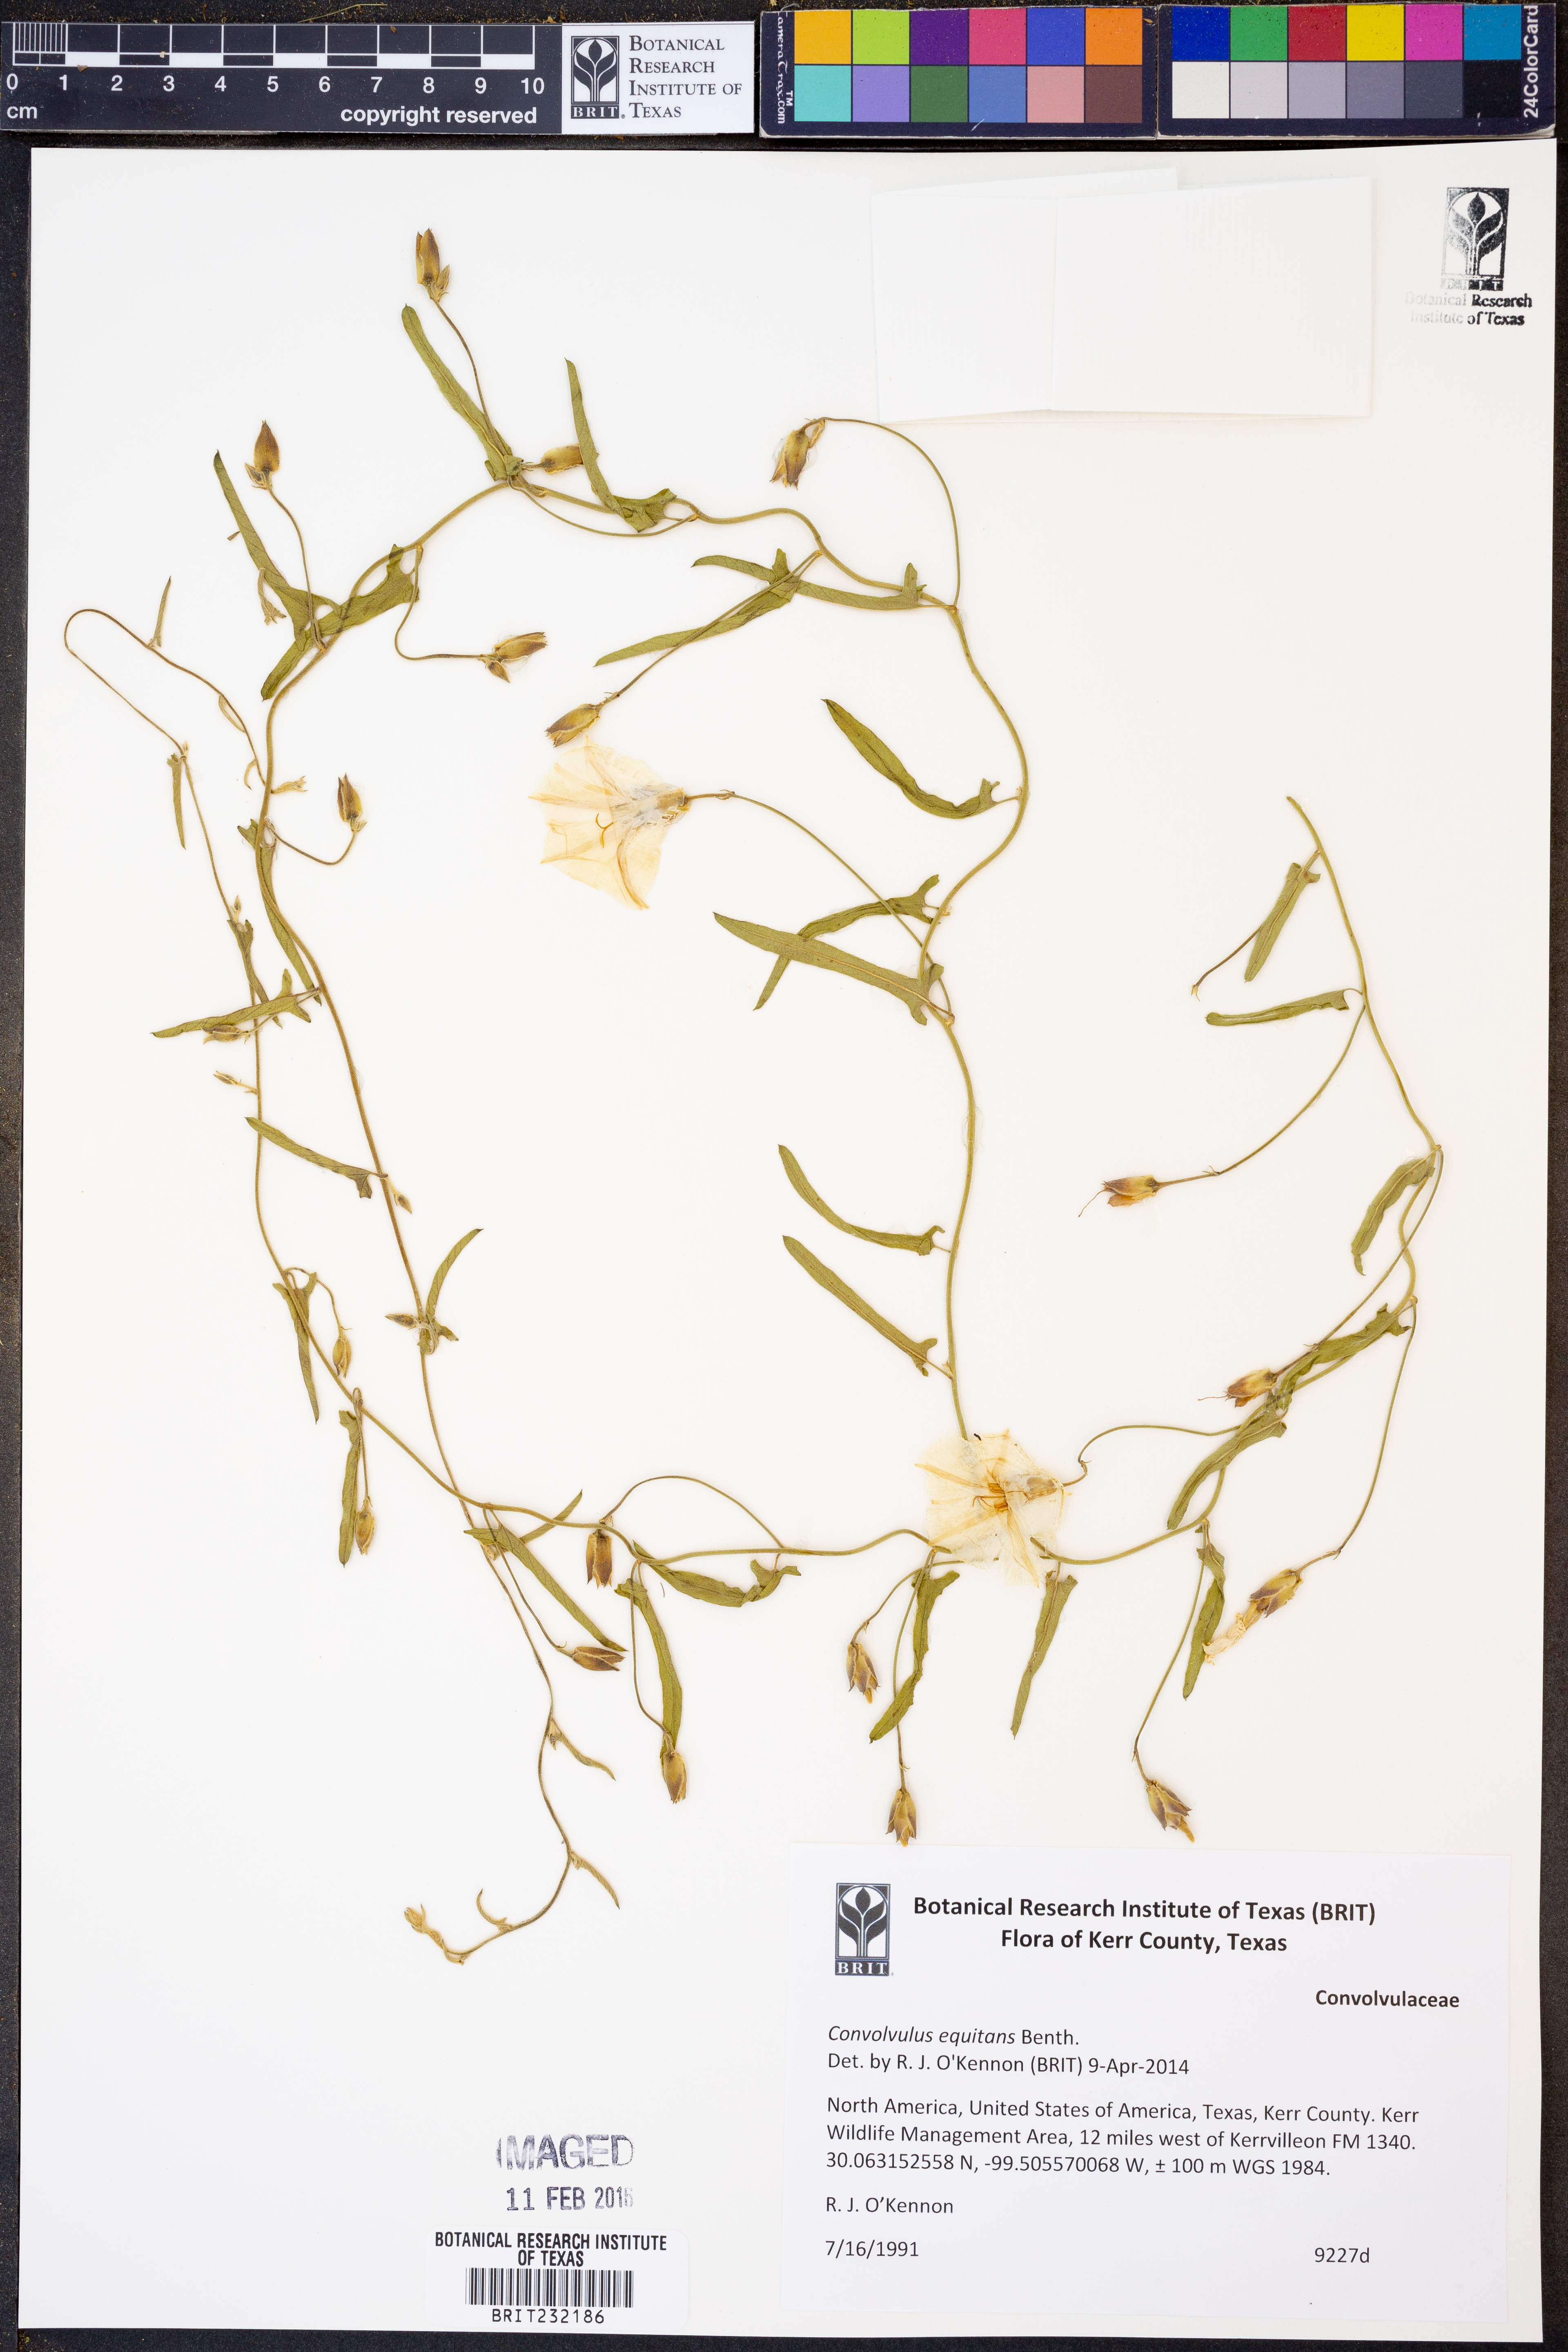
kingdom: Plantae
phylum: Tracheophyta
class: Magnoliopsida
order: Solanales
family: Convolvulaceae
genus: Convolvulus
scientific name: Convolvulus equitans
